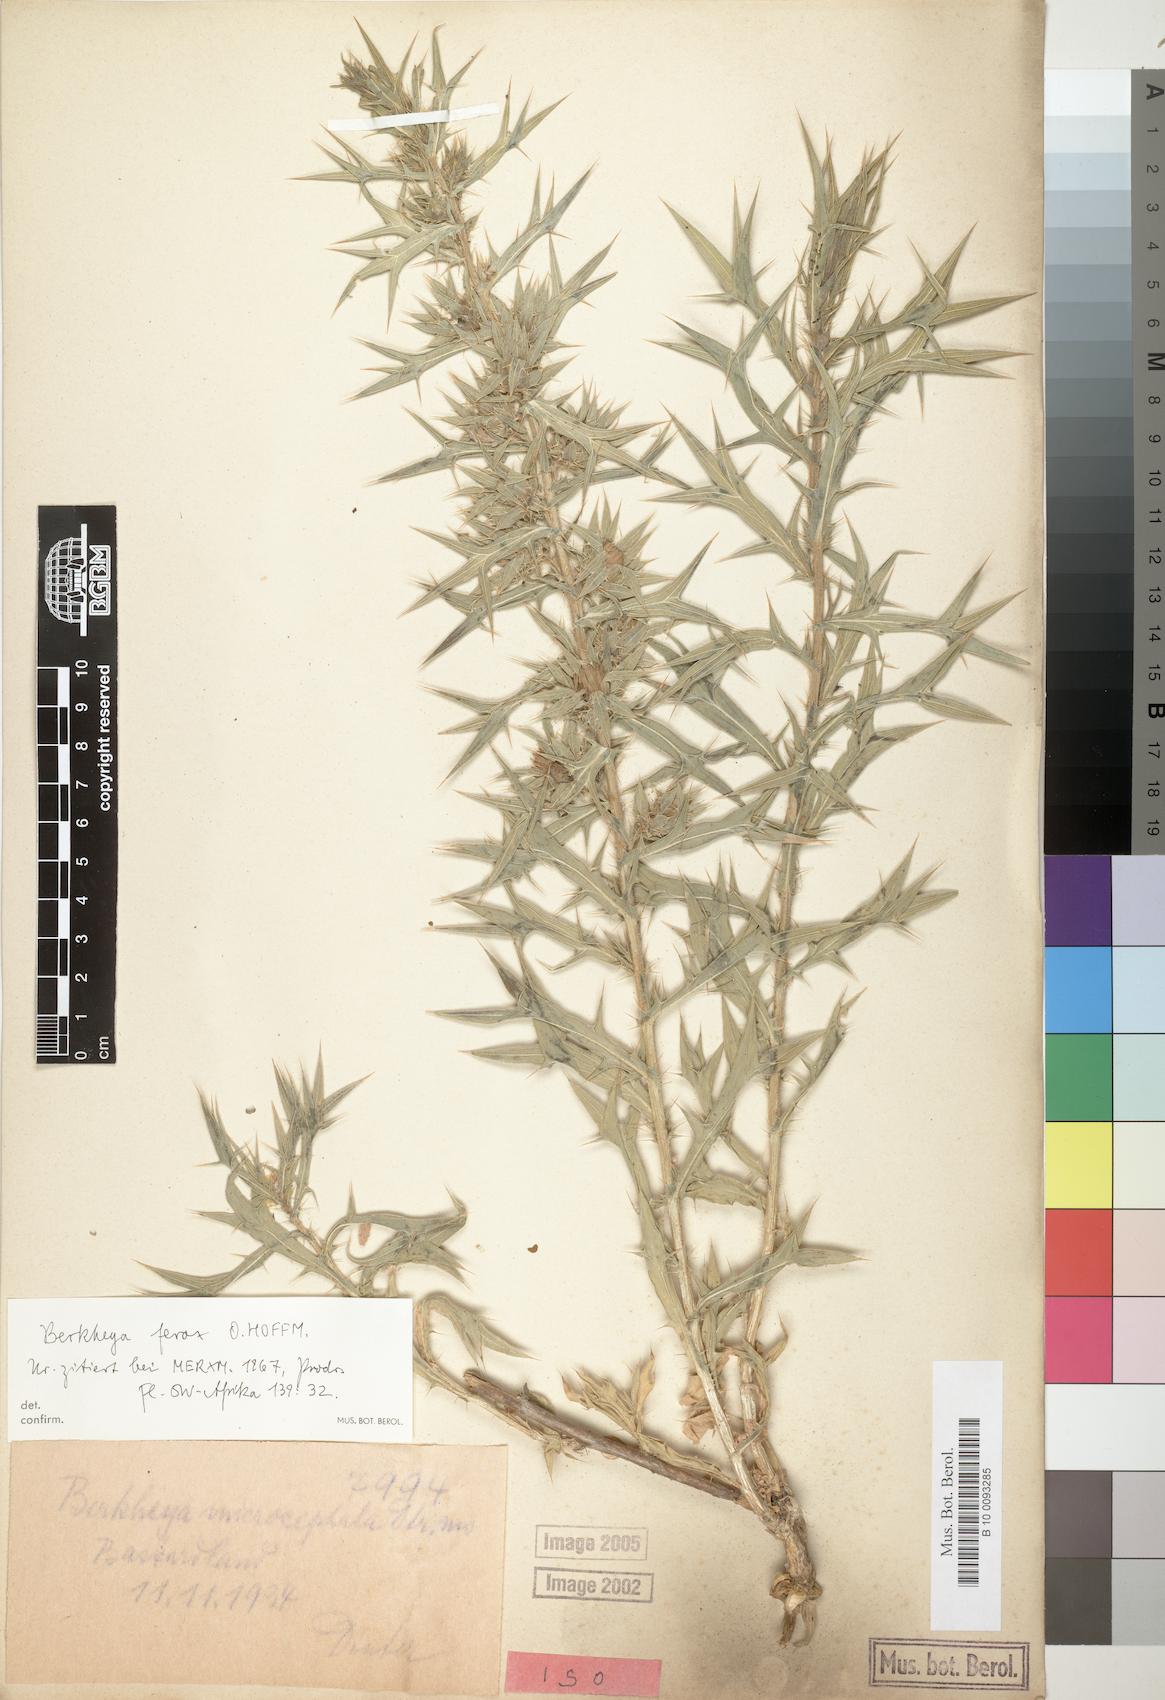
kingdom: Plantae
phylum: Tracheophyta
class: Magnoliopsida
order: Asterales
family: Asteraceae
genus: Berkheya
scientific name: Berkheya ferox
